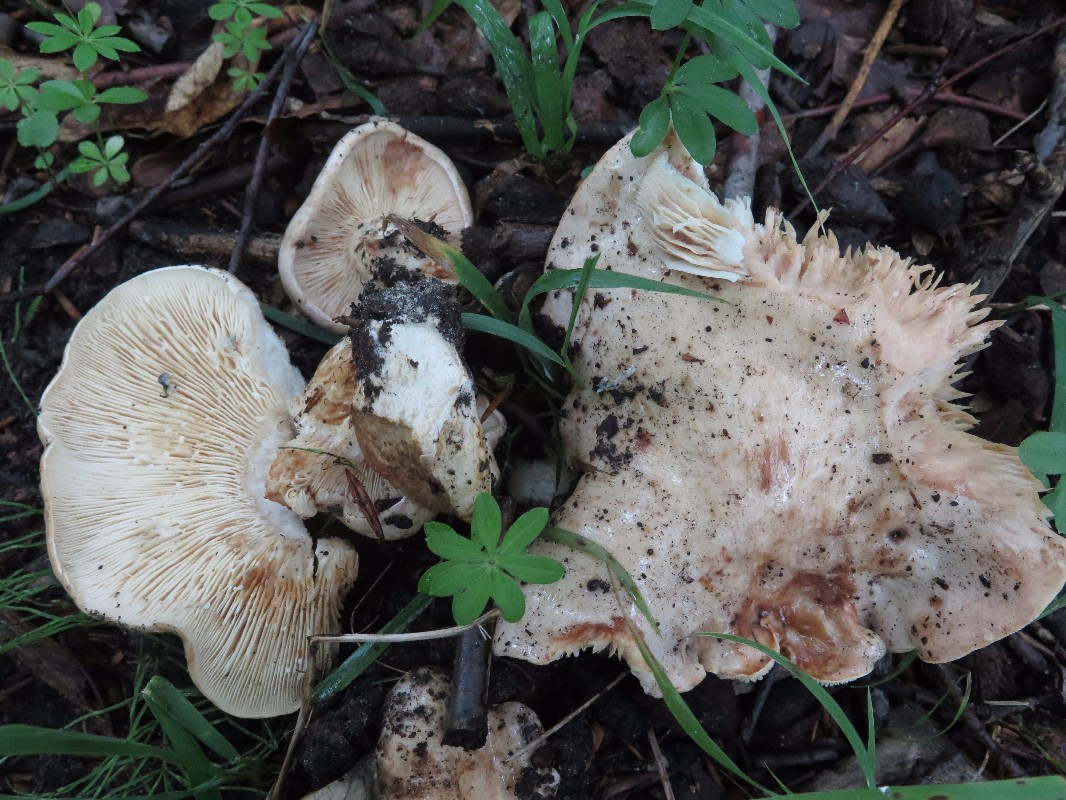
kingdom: Fungi
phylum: Basidiomycota
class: Agaricomycetes
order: Russulales
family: Russulaceae
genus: Lactarius
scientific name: Lactarius pallidus
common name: bleg mælkehat
